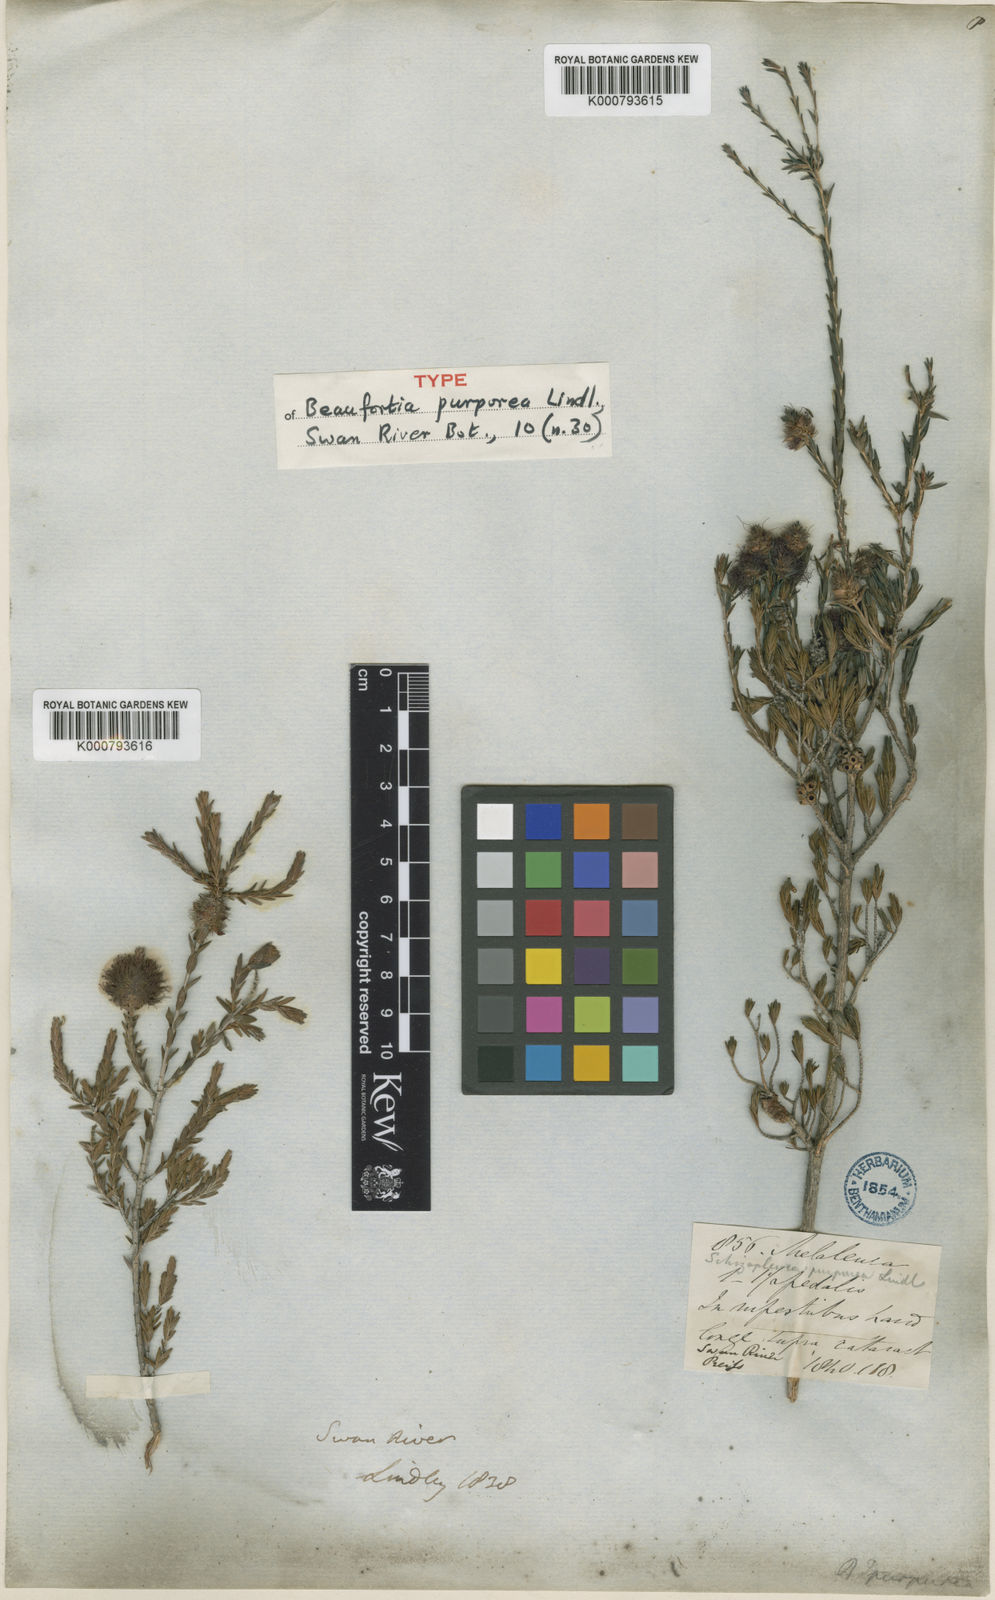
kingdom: Plantae
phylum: Tracheophyta
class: Magnoliopsida
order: Myrtales
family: Myrtaceae
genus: Melaleuca
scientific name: Melaleuca purpurea
